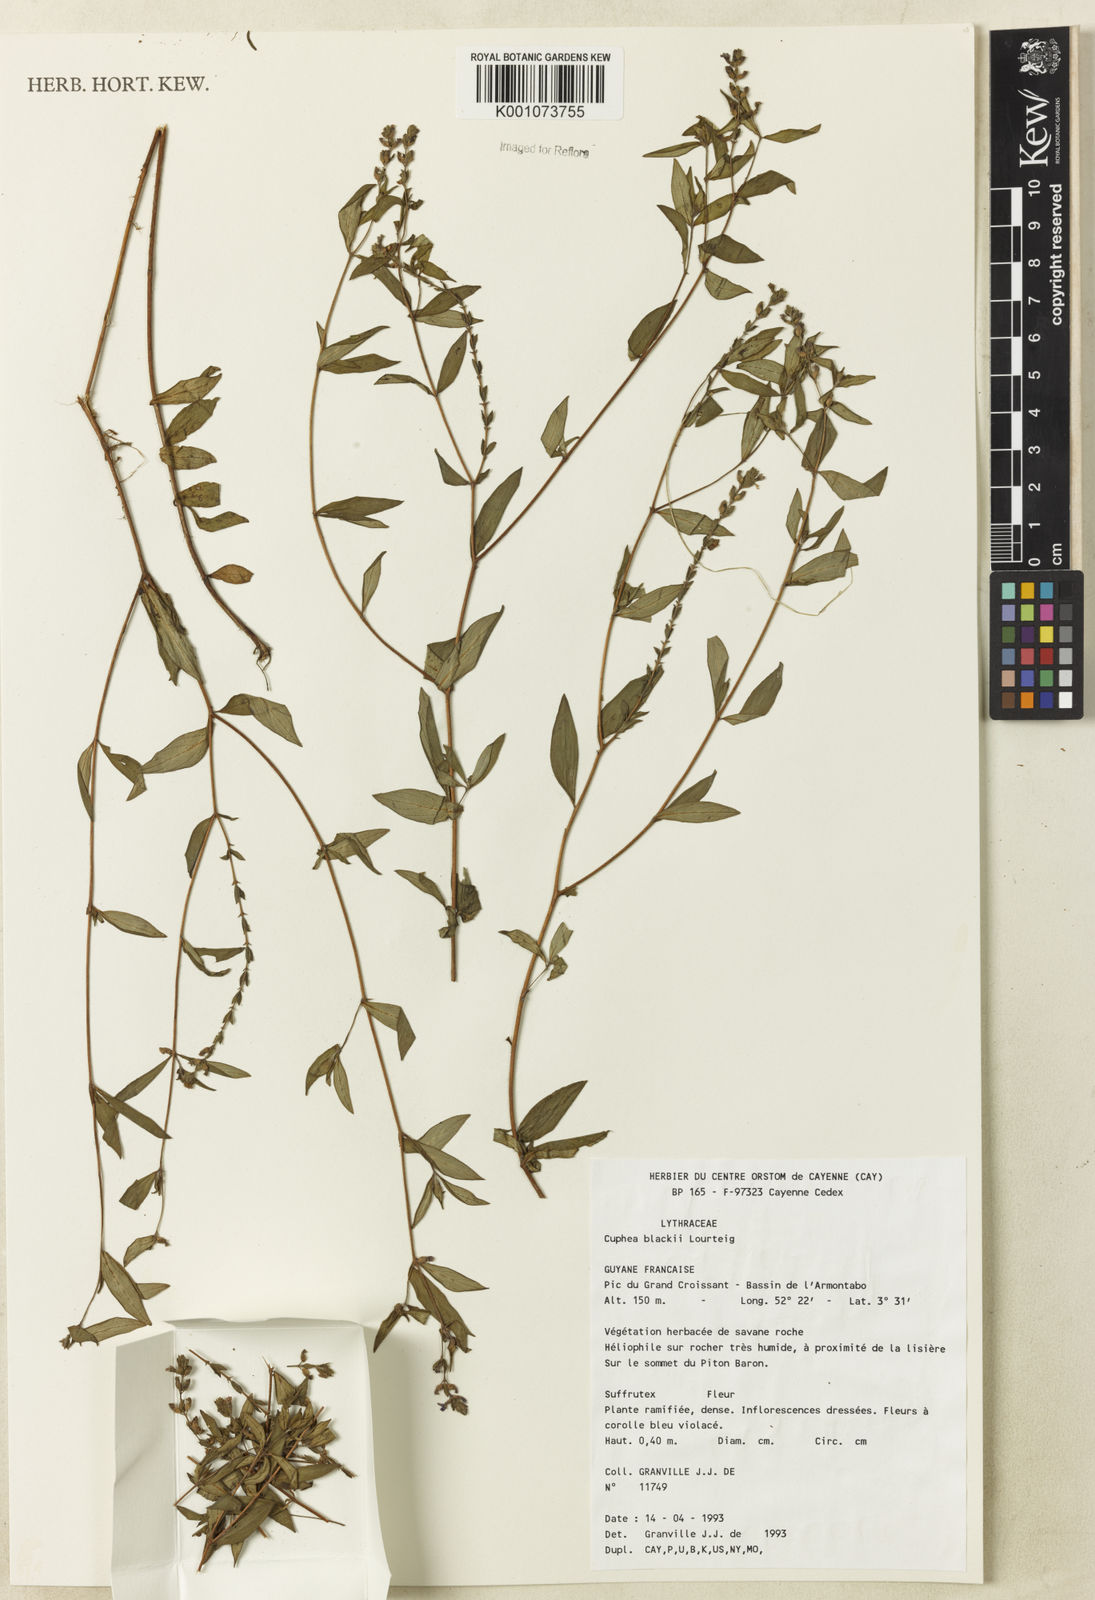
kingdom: Plantae
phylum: Tracheophyta
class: Magnoliopsida
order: Myrtales
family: Lythraceae
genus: Cuphea
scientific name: Cuphea blackii
